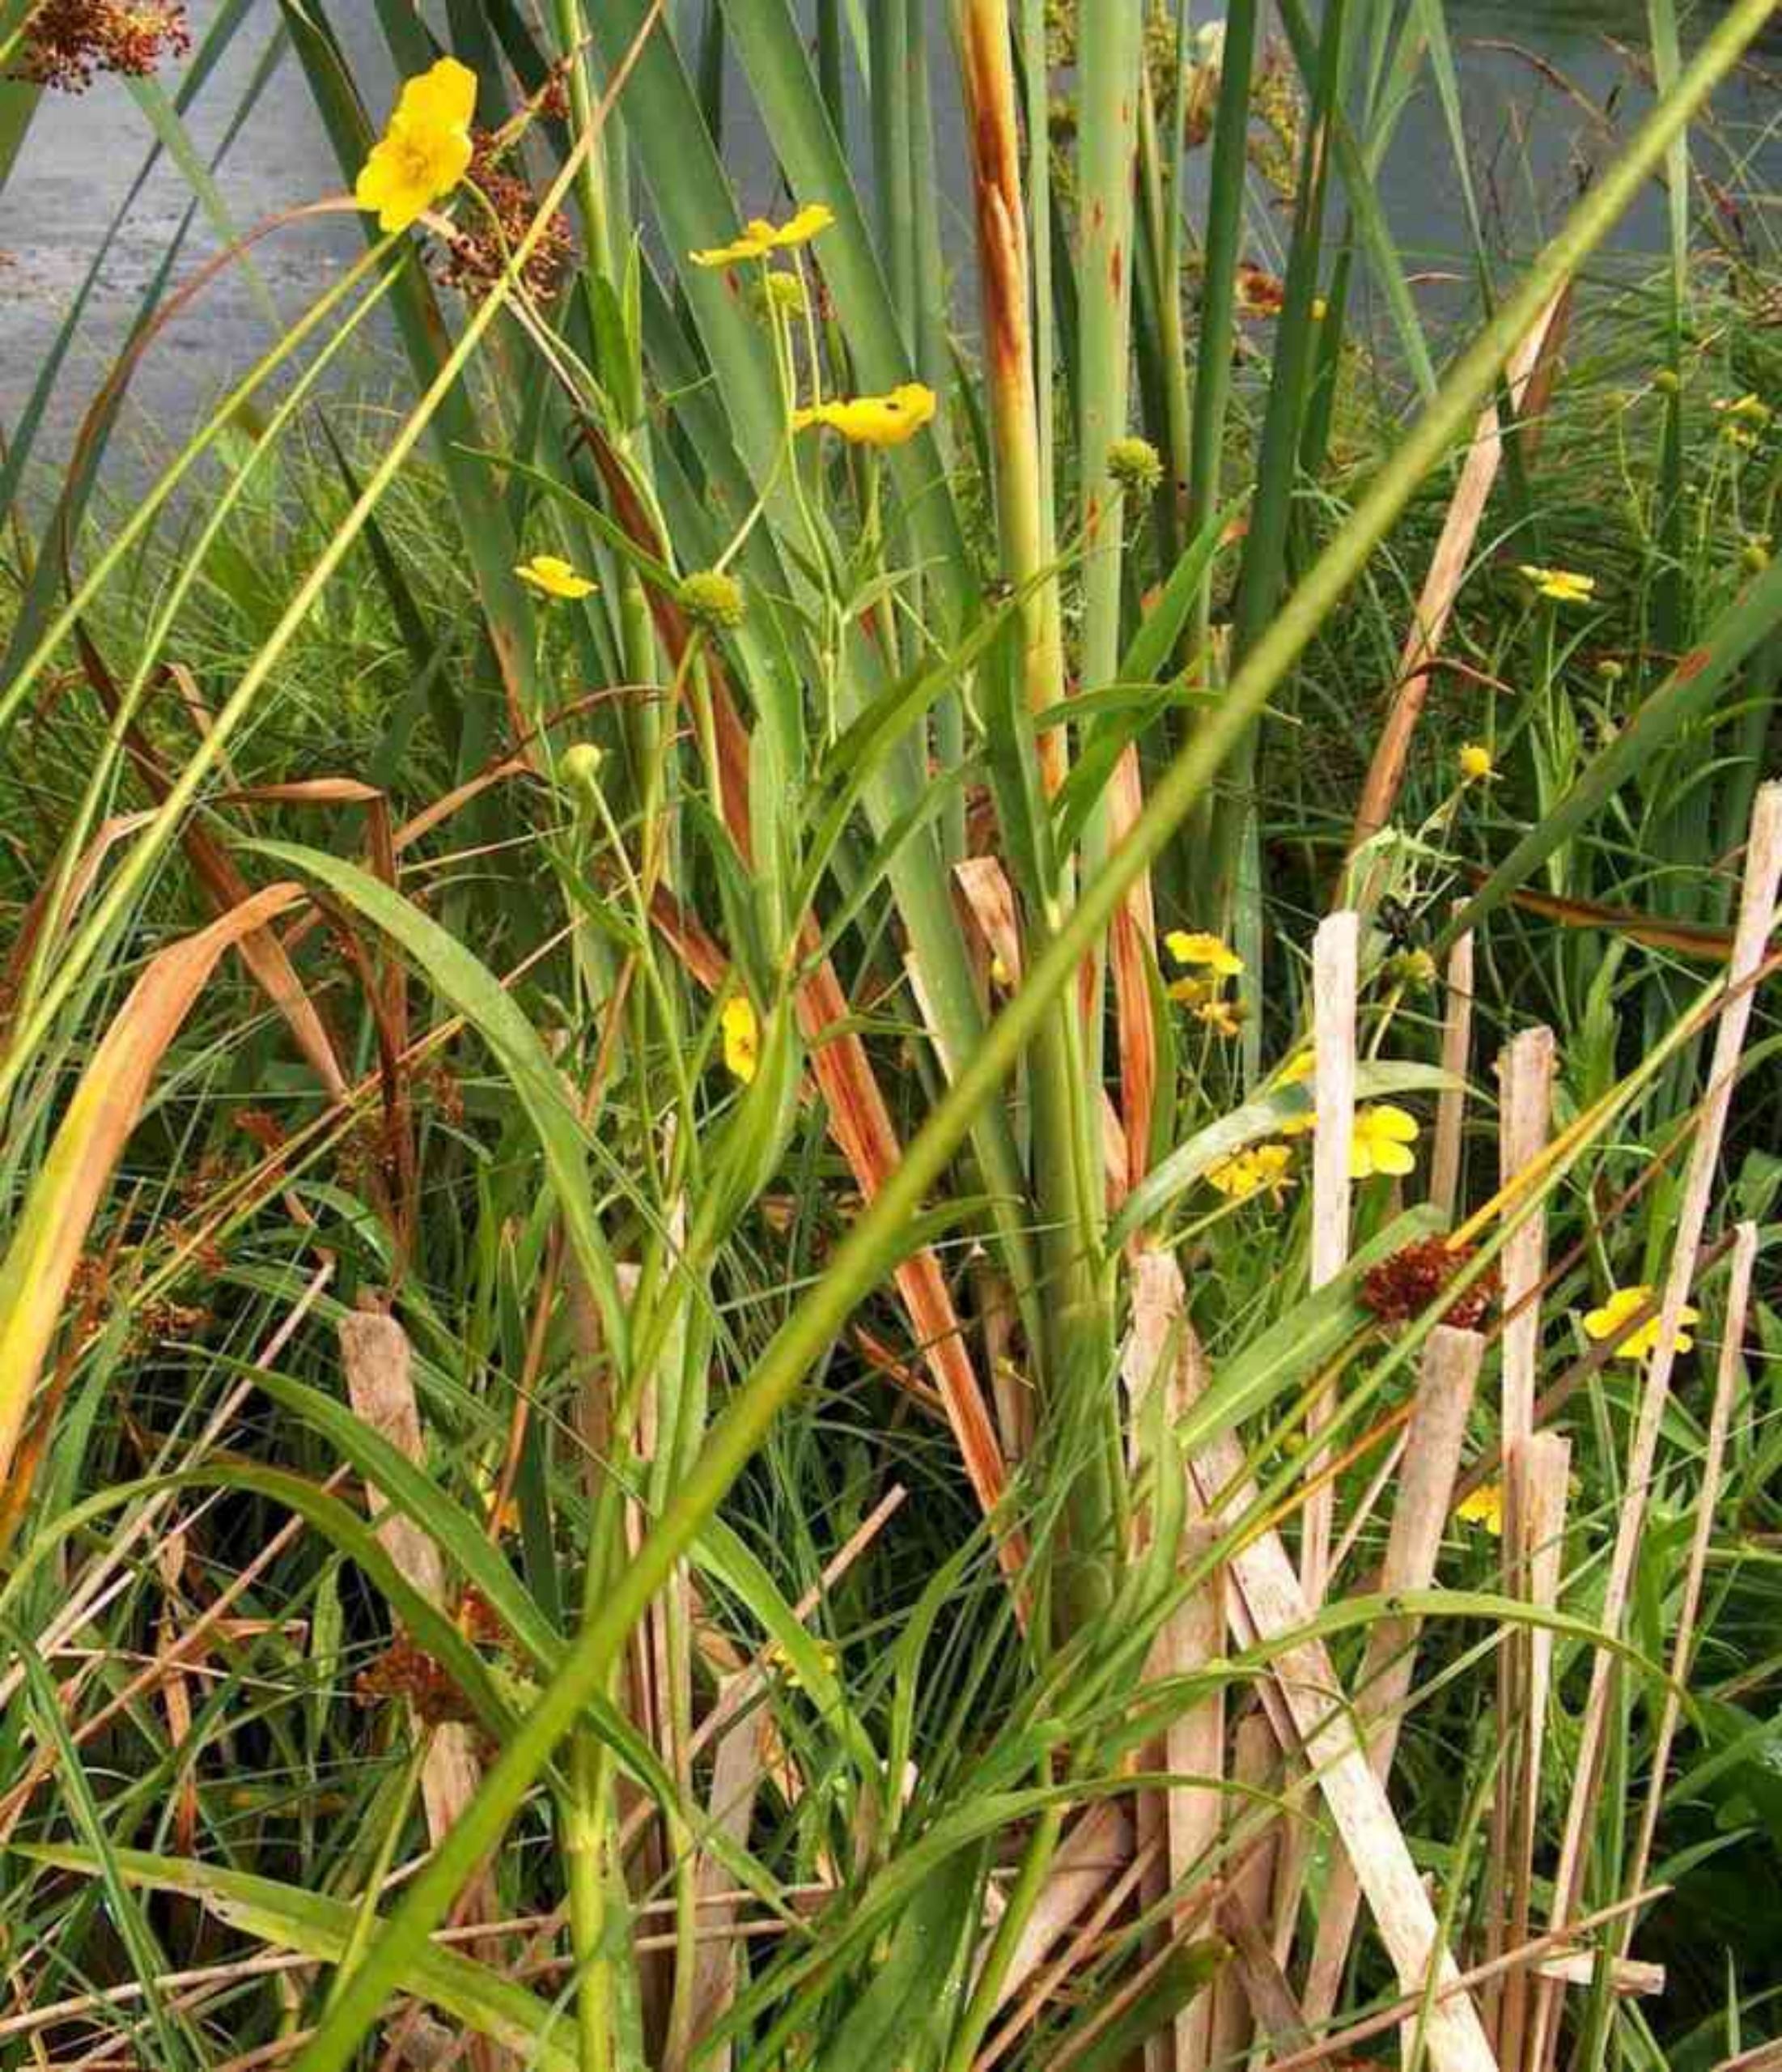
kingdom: Plantae
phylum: Tracheophyta
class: Magnoliopsida
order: Ranunculales
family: Ranunculaceae
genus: Ranunculus
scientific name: Ranunculus lingua
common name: Langbladet ranunkel
